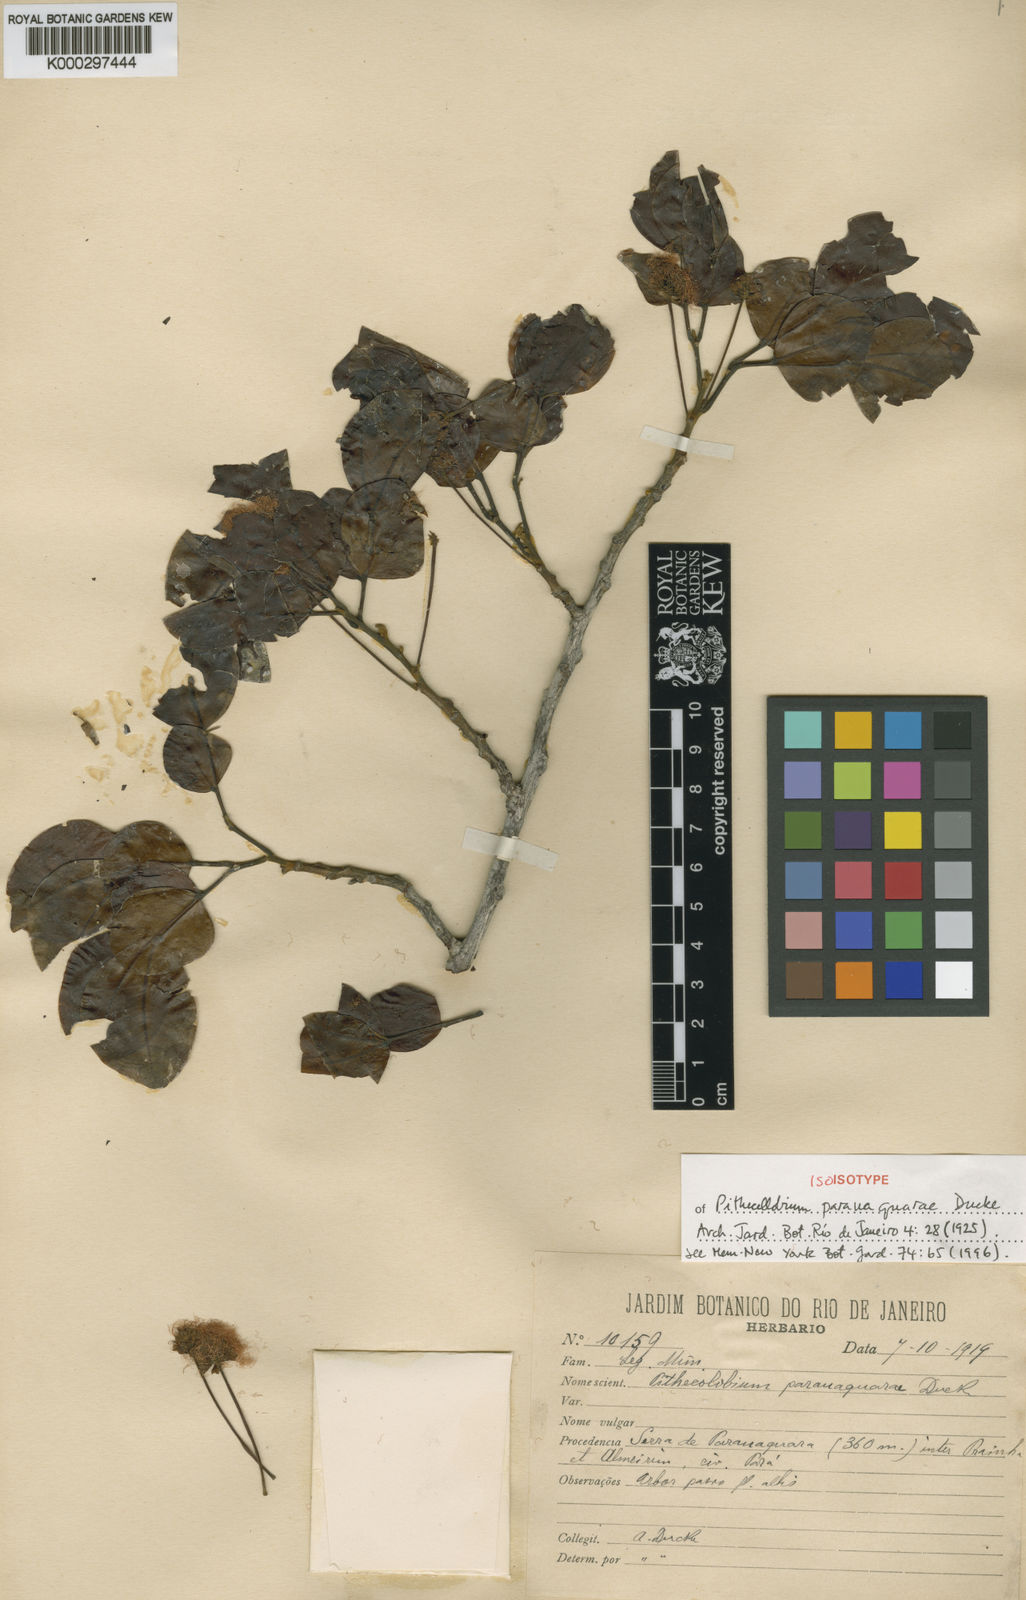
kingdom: Plantae
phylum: Tracheophyta
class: Magnoliopsida
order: Fabales
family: Fabaceae
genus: Jupunba
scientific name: Jupunba microcalyx
